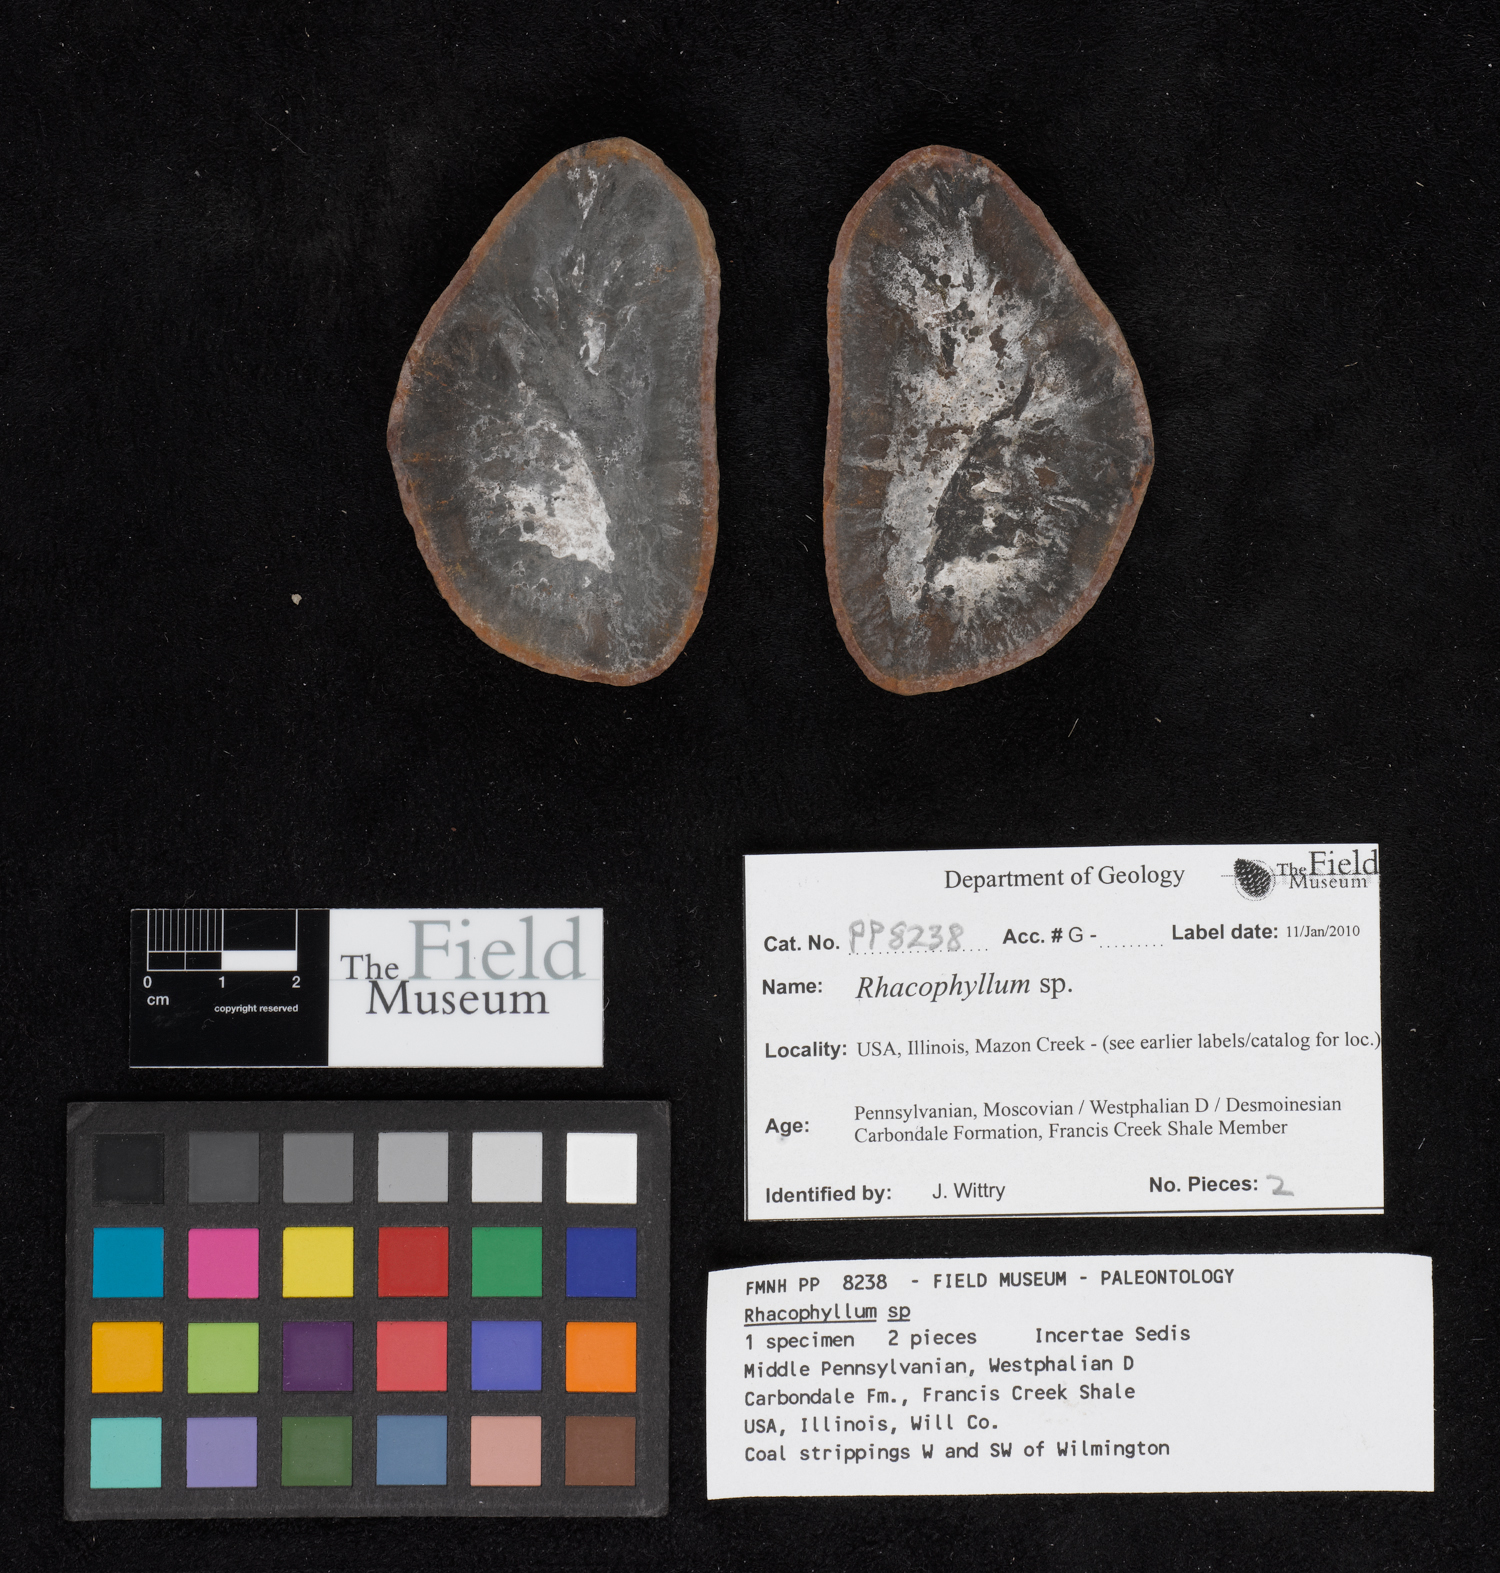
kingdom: Plantae
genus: Rhacophyllum
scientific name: Rhacophyllum
